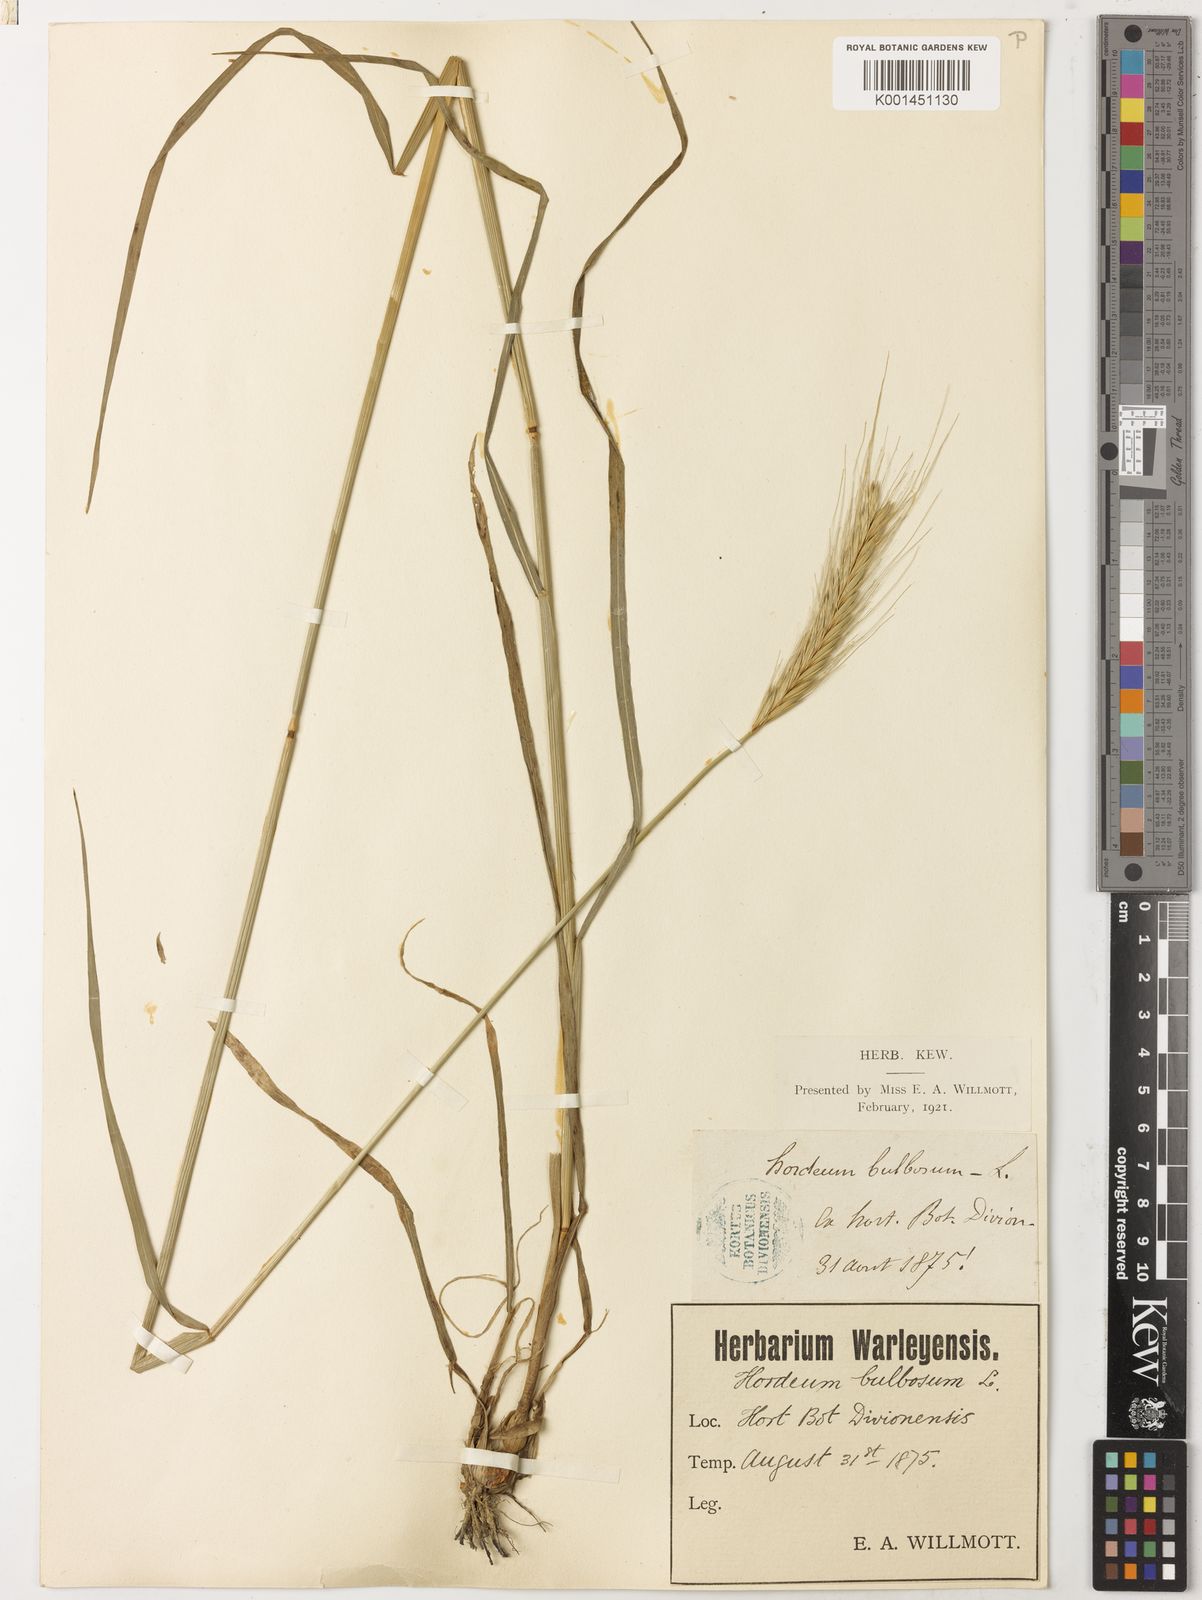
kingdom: Plantae
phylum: Tracheophyta
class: Liliopsida
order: Poales
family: Poaceae
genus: Hordeum
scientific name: Hordeum bulbosum
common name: Bulbous barley
